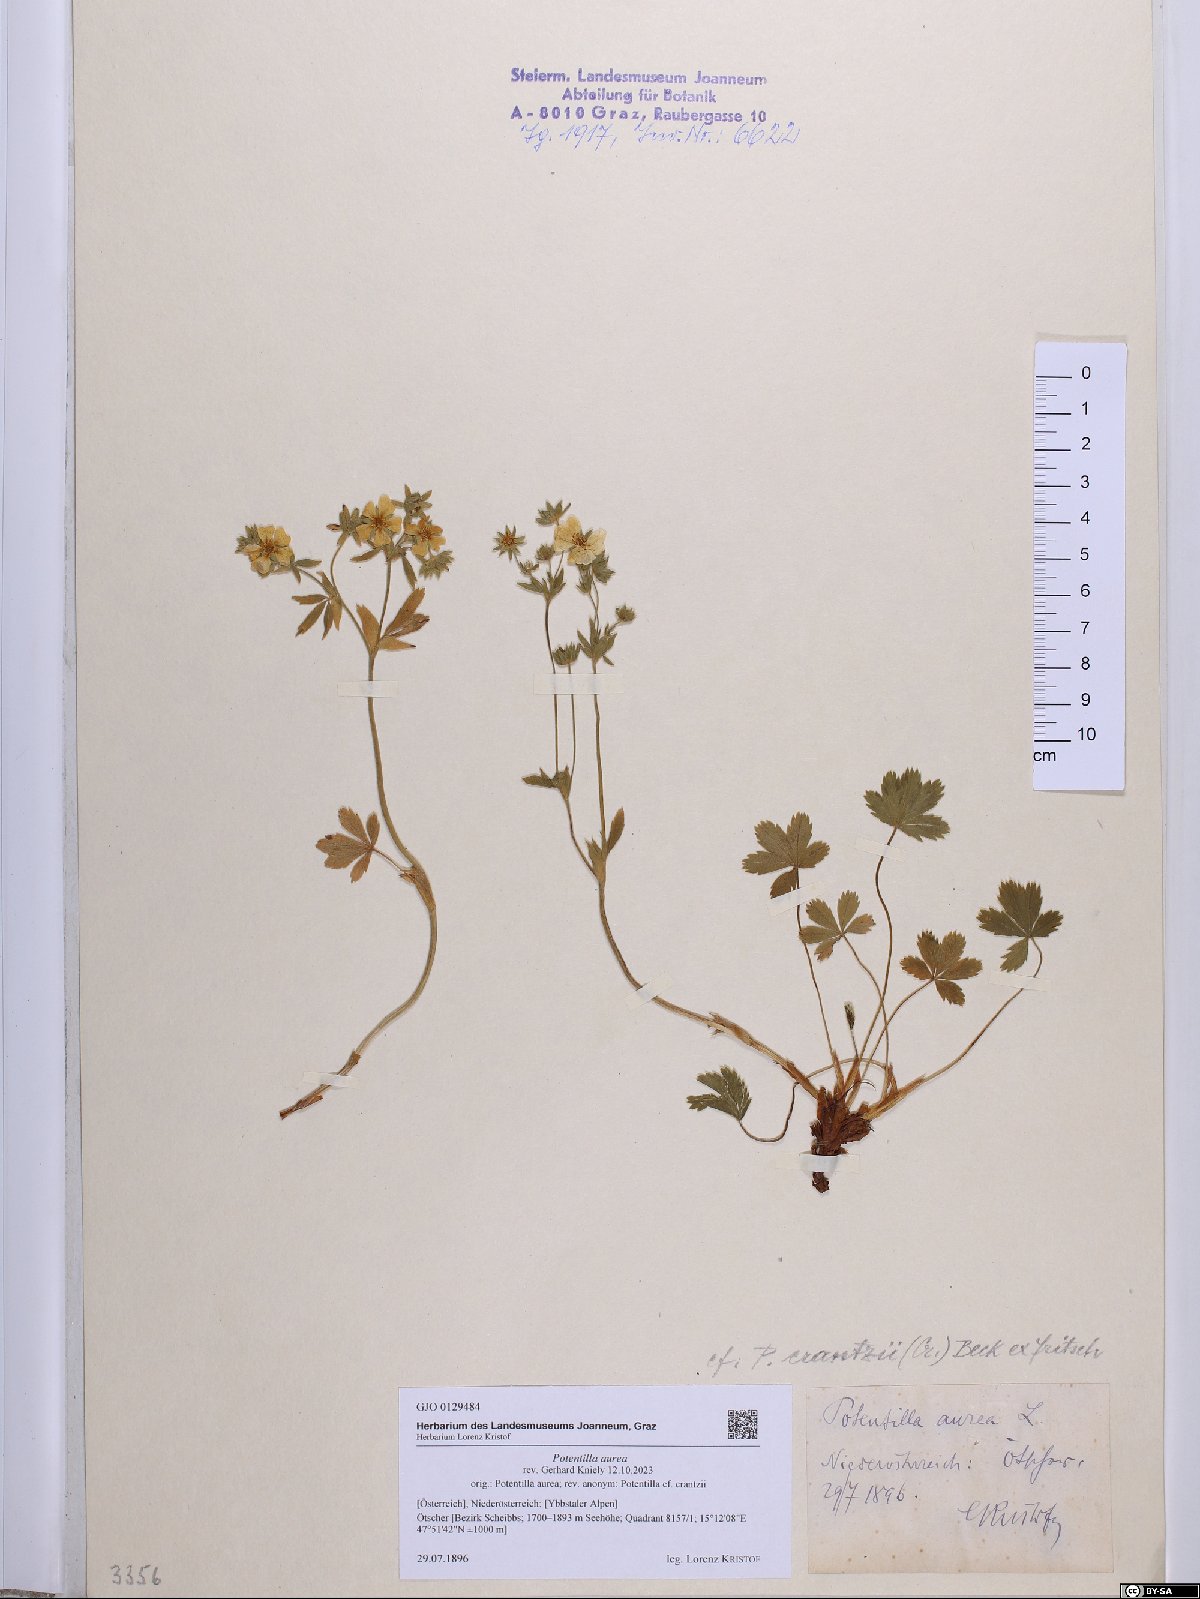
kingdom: Plantae
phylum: Tracheophyta
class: Magnoliopsida
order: Rosales
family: Rosaceae
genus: Potentilla
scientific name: Potentilla aurea
